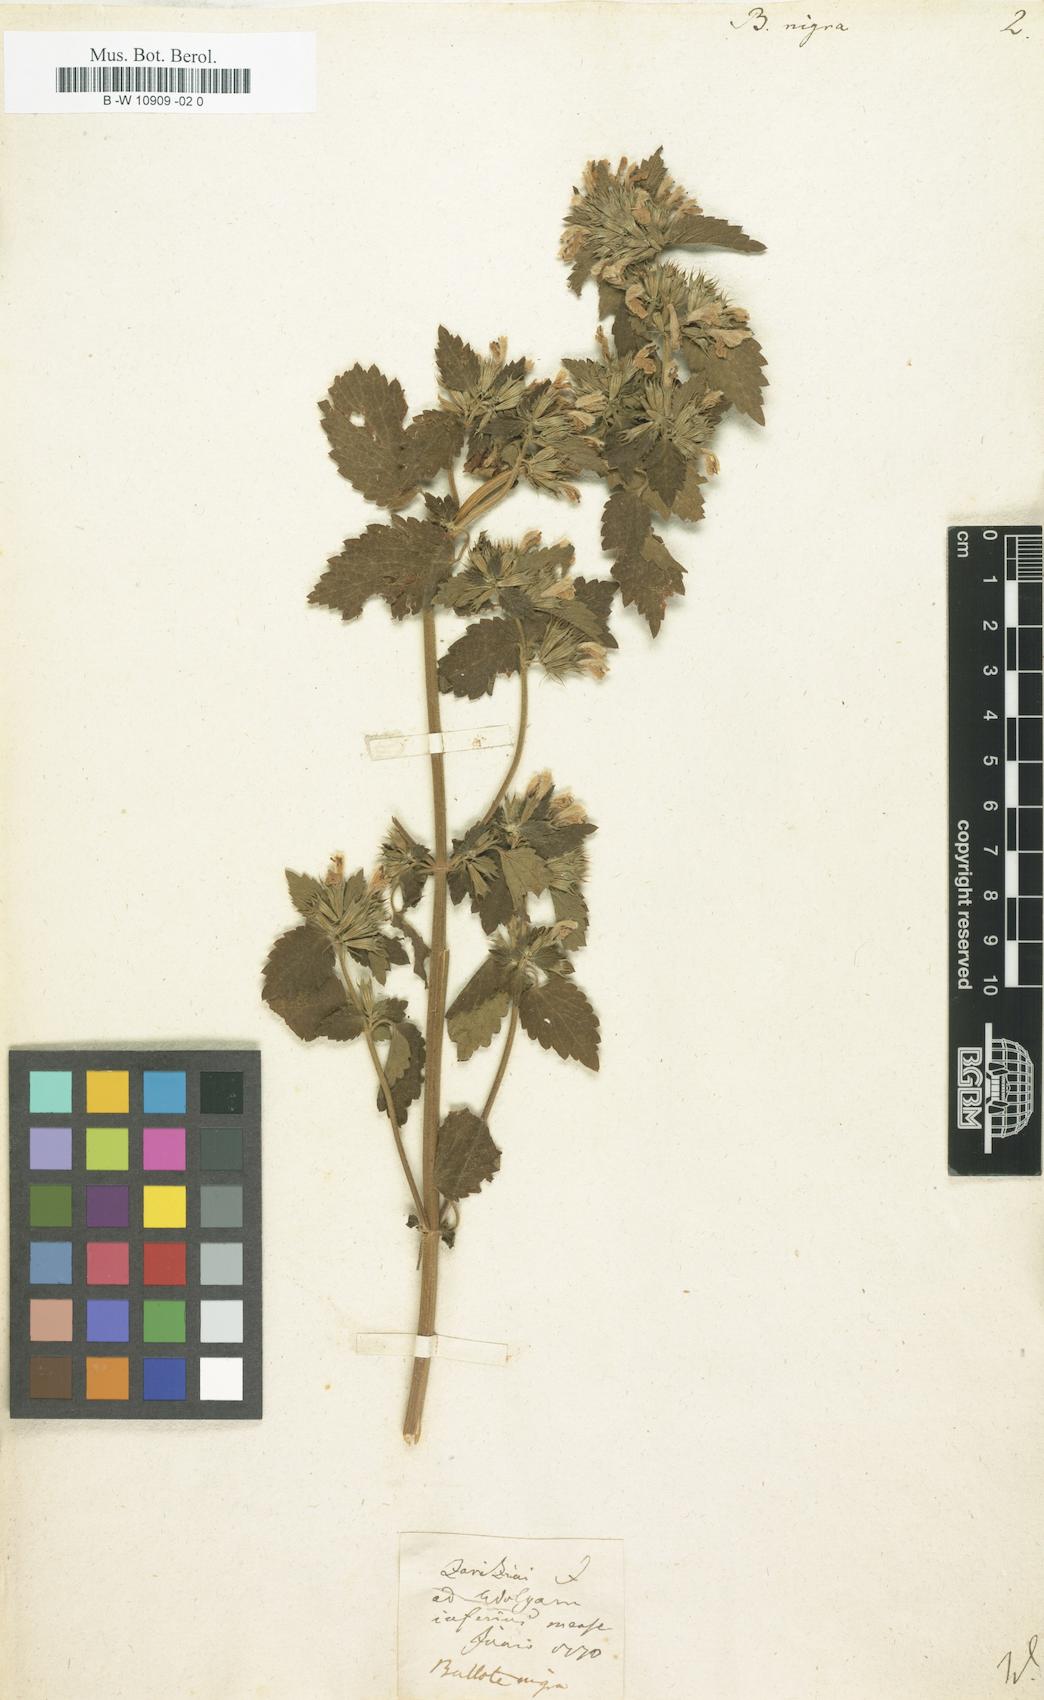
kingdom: Plantae
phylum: Tracheophyta
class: Magnoliopsida
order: Lamiales
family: Lamiaceae
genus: Ballota
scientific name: Ballota nigra
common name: Black horehound
